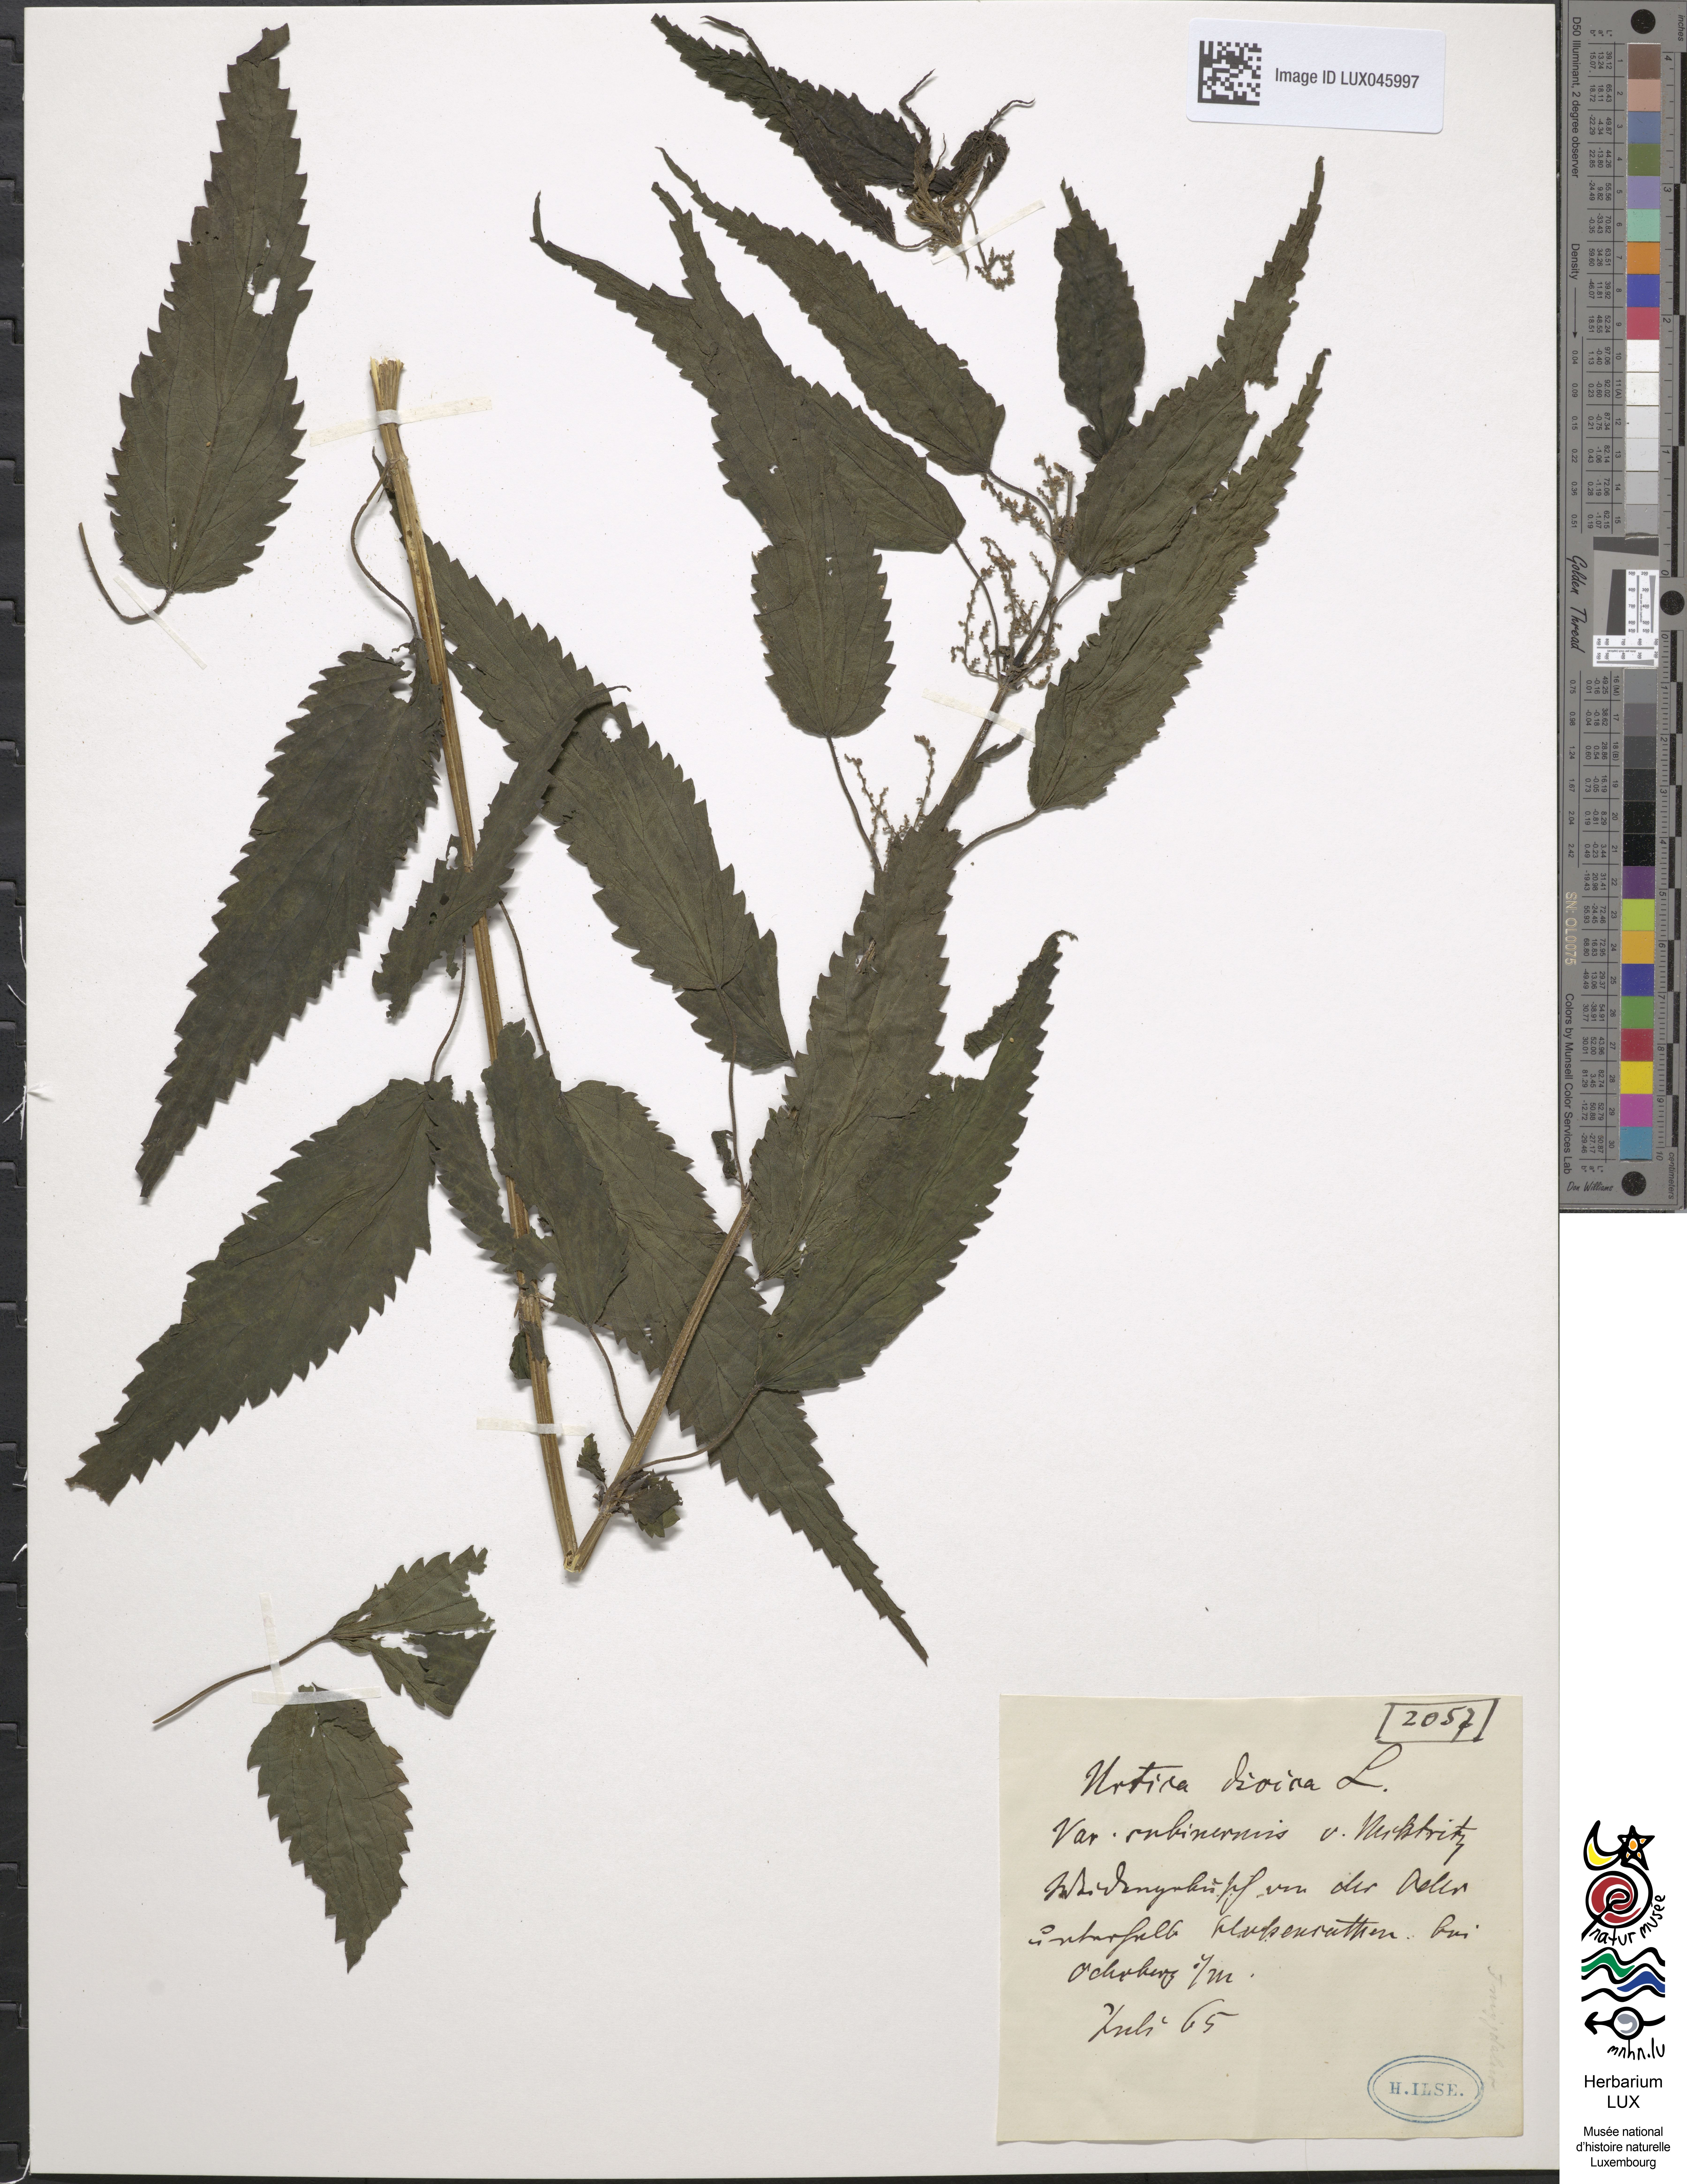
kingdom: Plantae
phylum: Tracheophyta
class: Magnoliopsida
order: Rosales
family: Urticaceae
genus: Urtica
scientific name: Urtica subinermis
